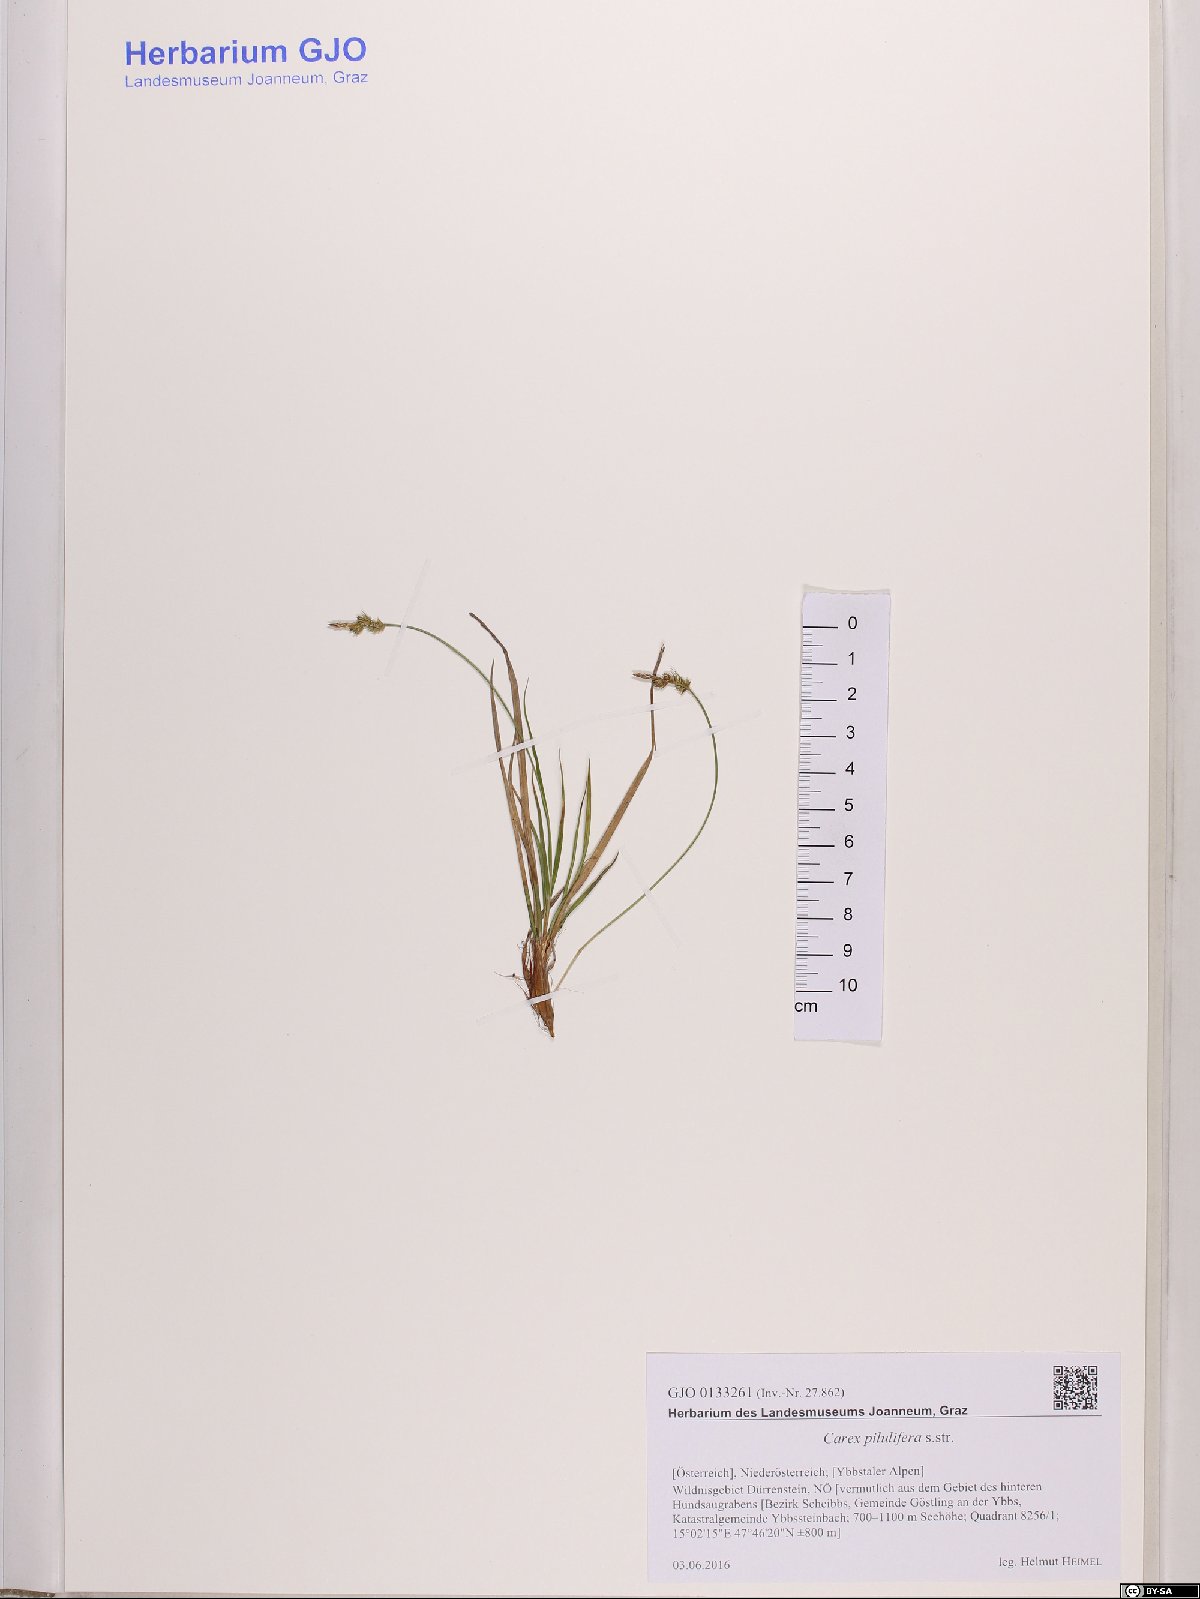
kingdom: Plantae
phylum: Tracheophyta
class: Liliopsida
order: Poales
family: Cyperaceae
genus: Carex
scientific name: Carex pilulifera
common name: Pill sedge
